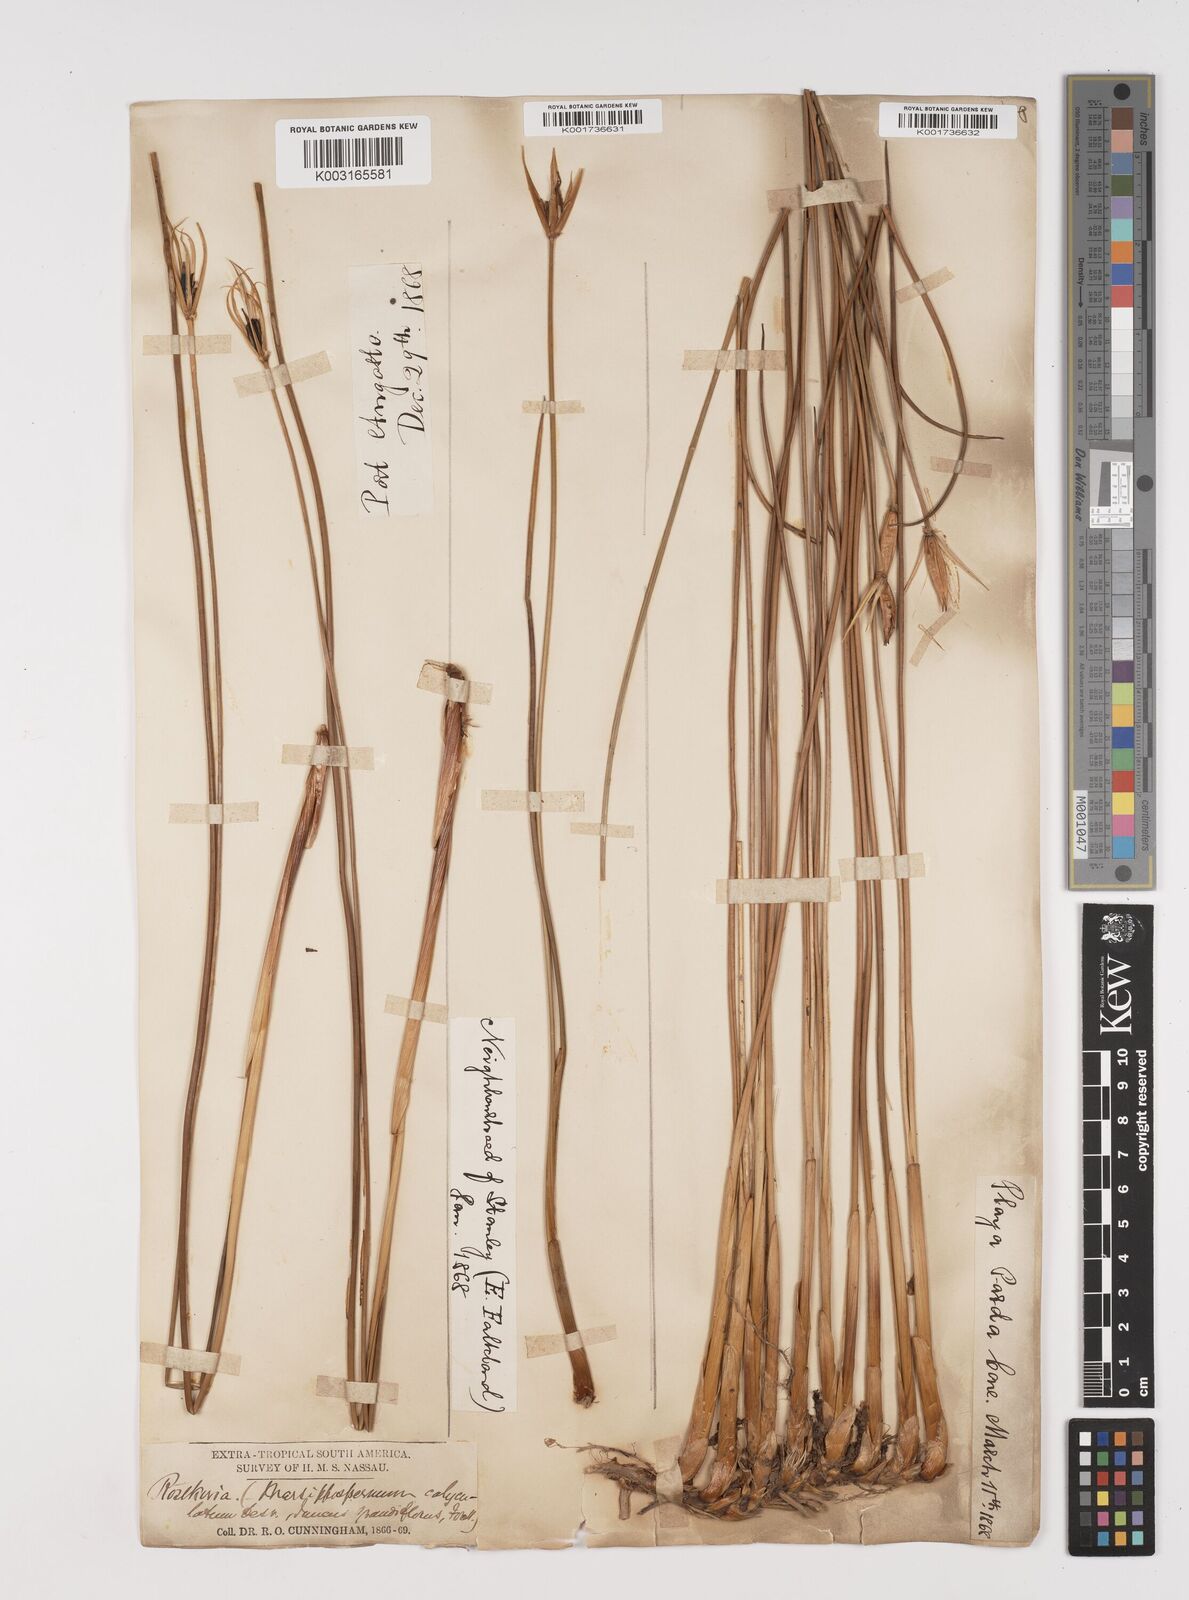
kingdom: Plantae
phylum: Tracheophyta
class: Liliopsida
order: Poales
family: Juncaceae
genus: Marsippospermum
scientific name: Marsippospermum grandiflorum
